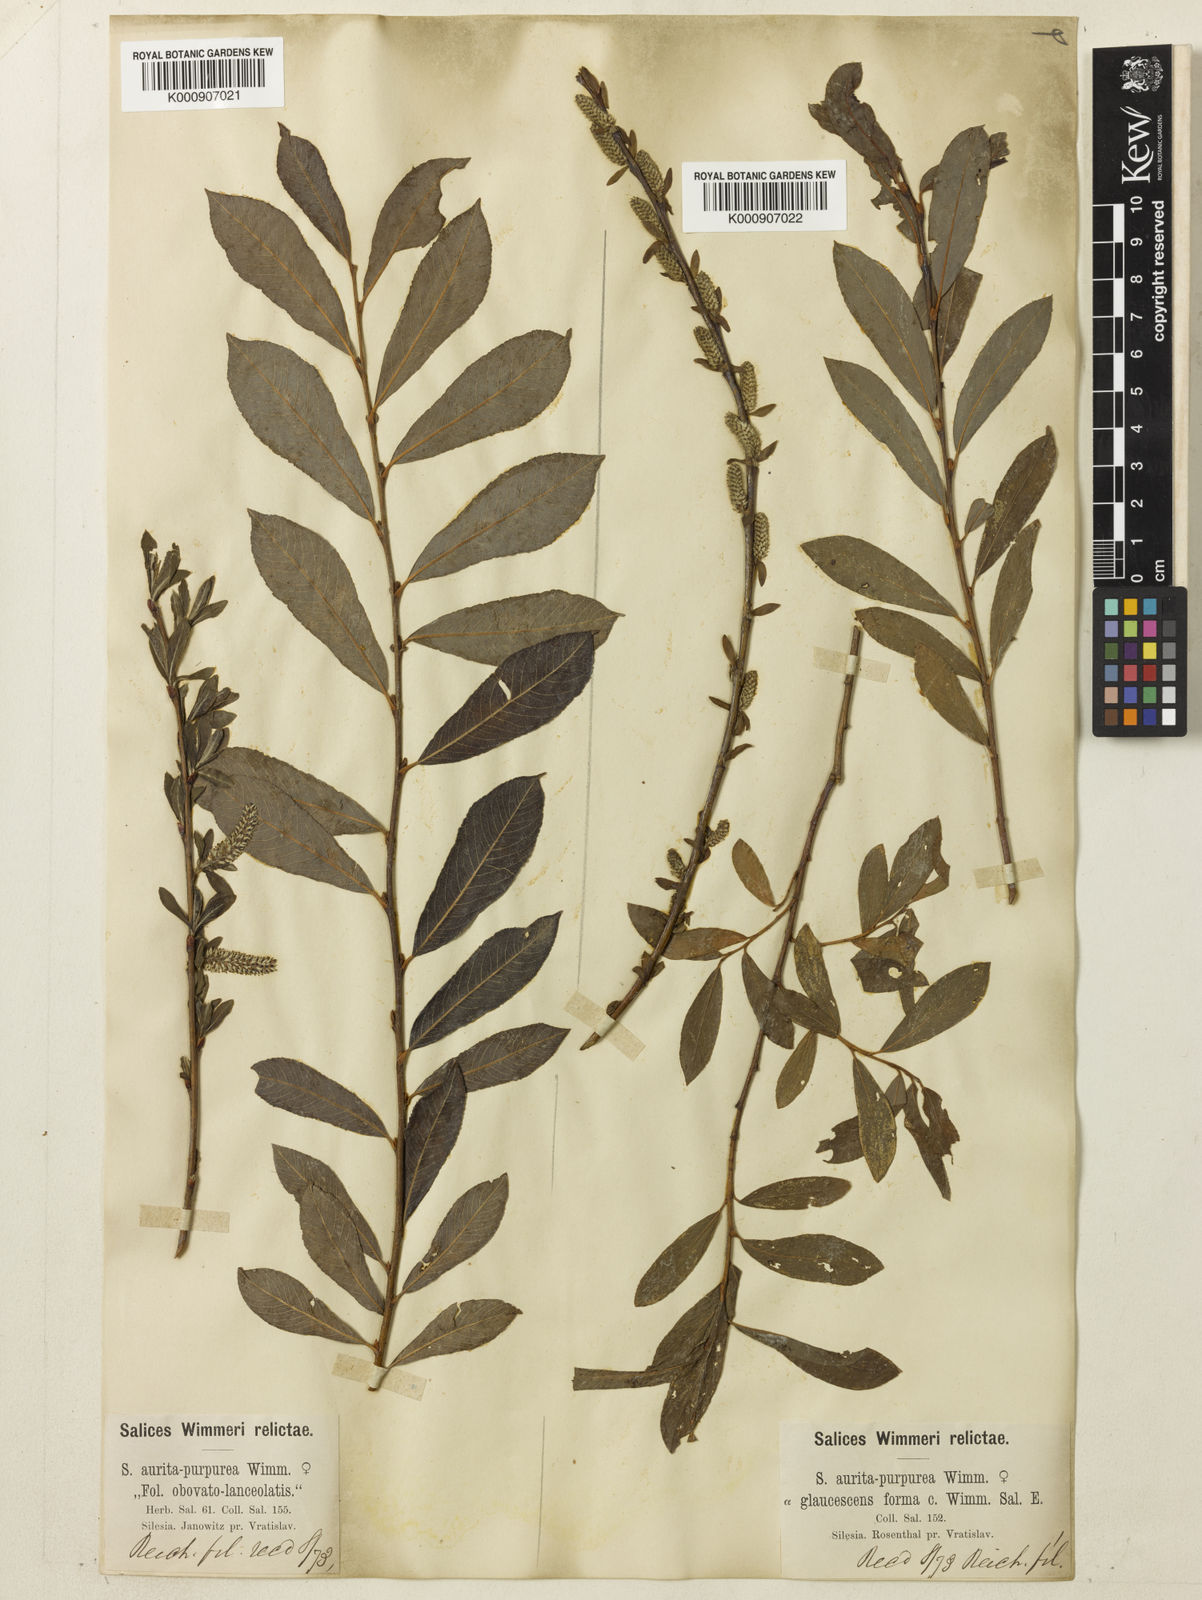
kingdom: Plantae
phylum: Tracheophyta
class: Magnoliopsida
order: Malpighiales
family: Salicaceae
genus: Salix
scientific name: Salix aurita
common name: Eared willow
